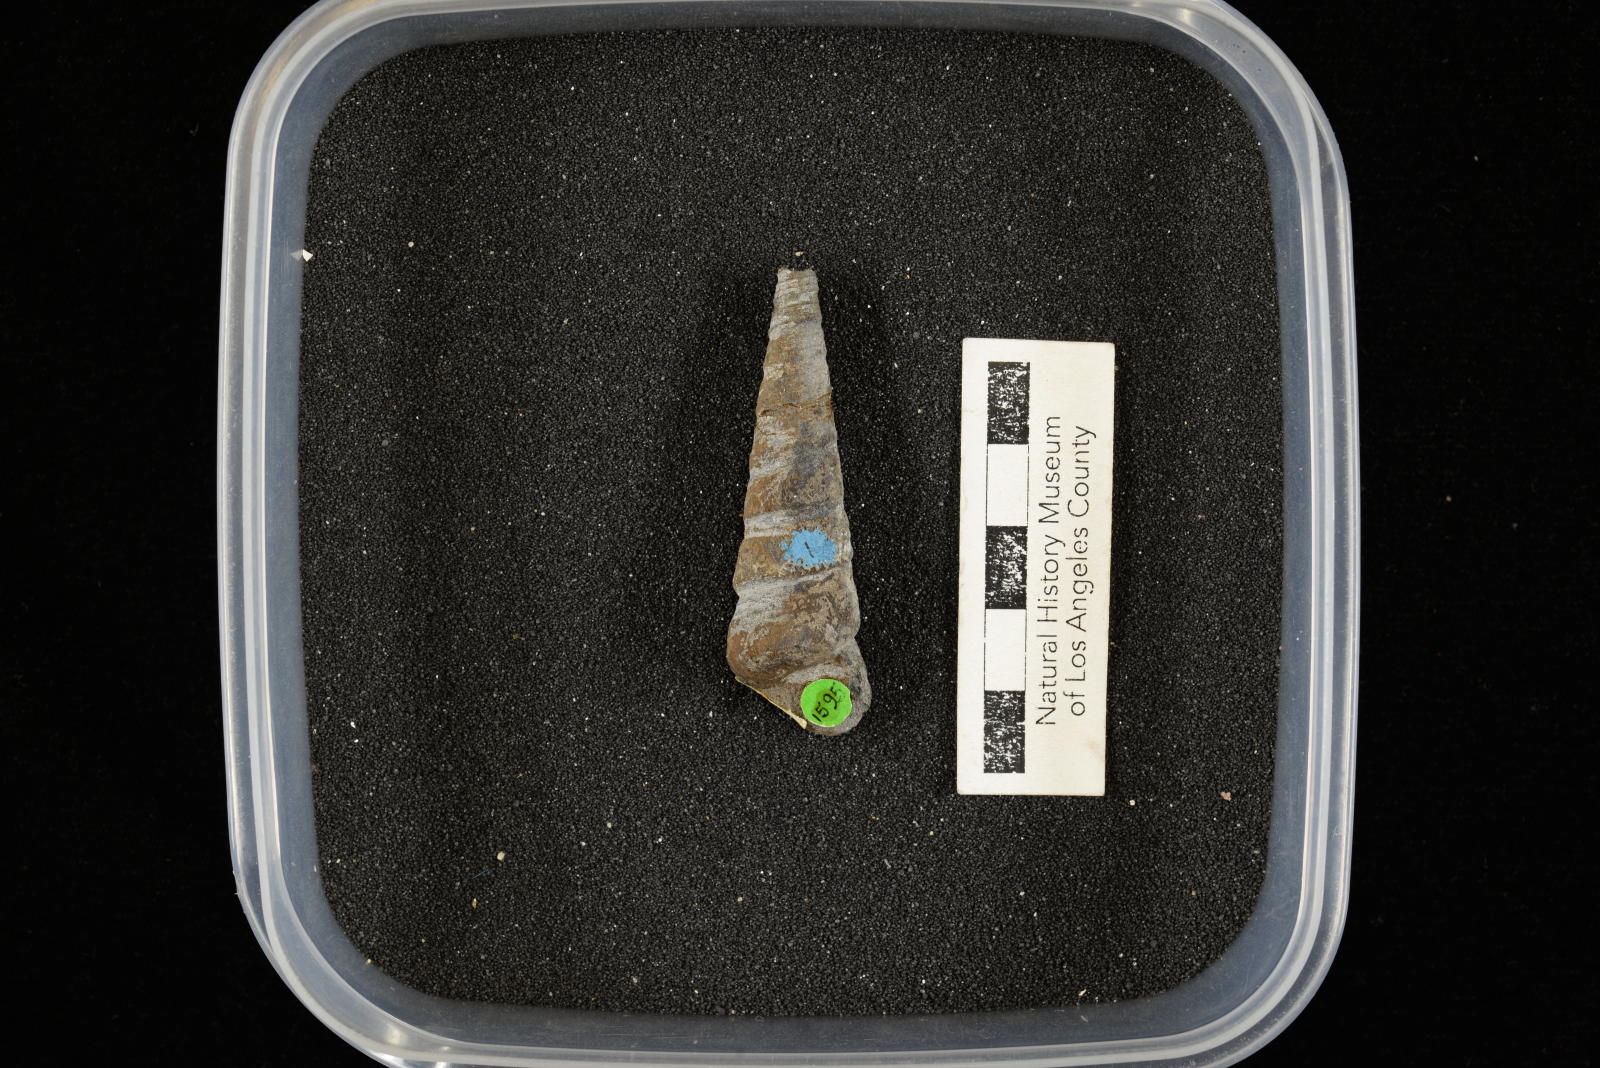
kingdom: Animalia
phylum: Mollusca
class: Gastropoda
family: Turritellidae
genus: Turritella
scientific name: Turritella peninsularis
